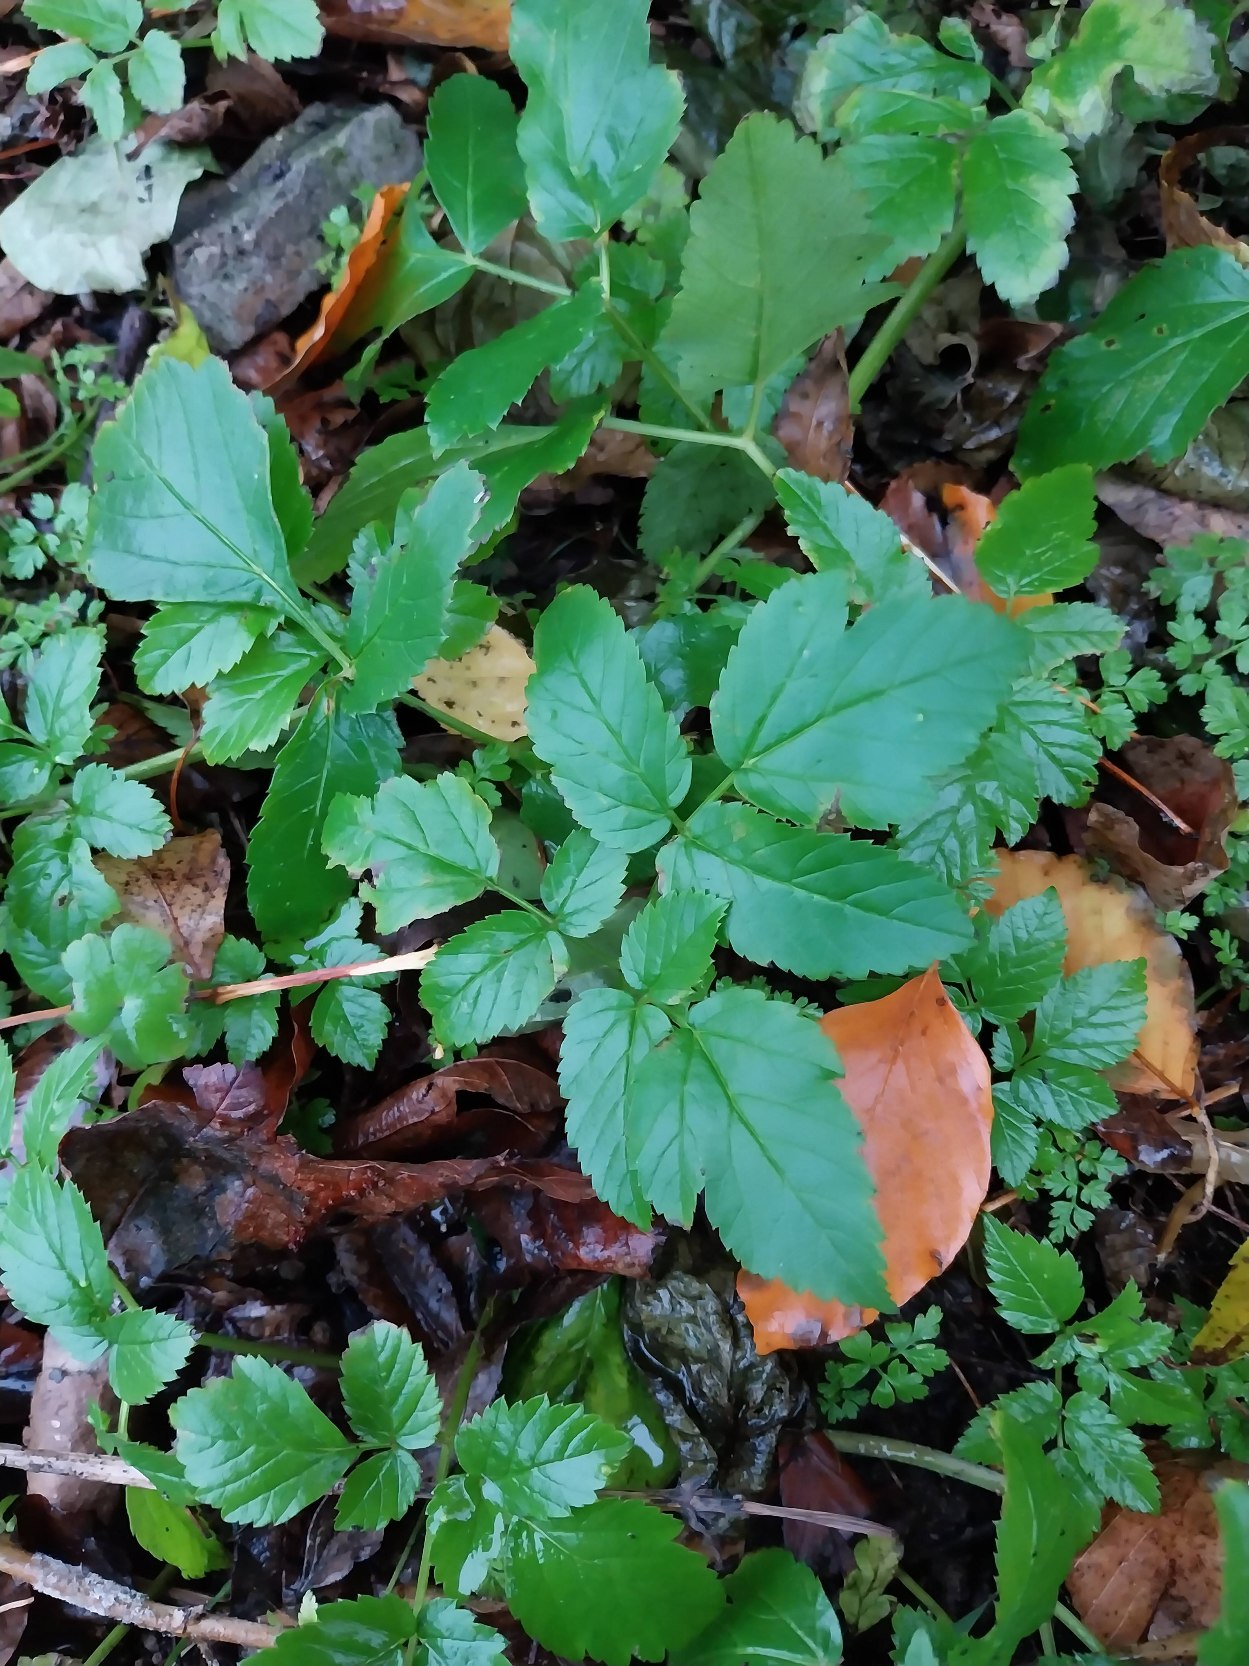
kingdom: Plantae
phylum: Tracheophyta
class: Magnoliopsida
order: Apiales
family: Apiaceae
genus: Aegopodium
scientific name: Aegopodium podagraria
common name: Skvalderkål
